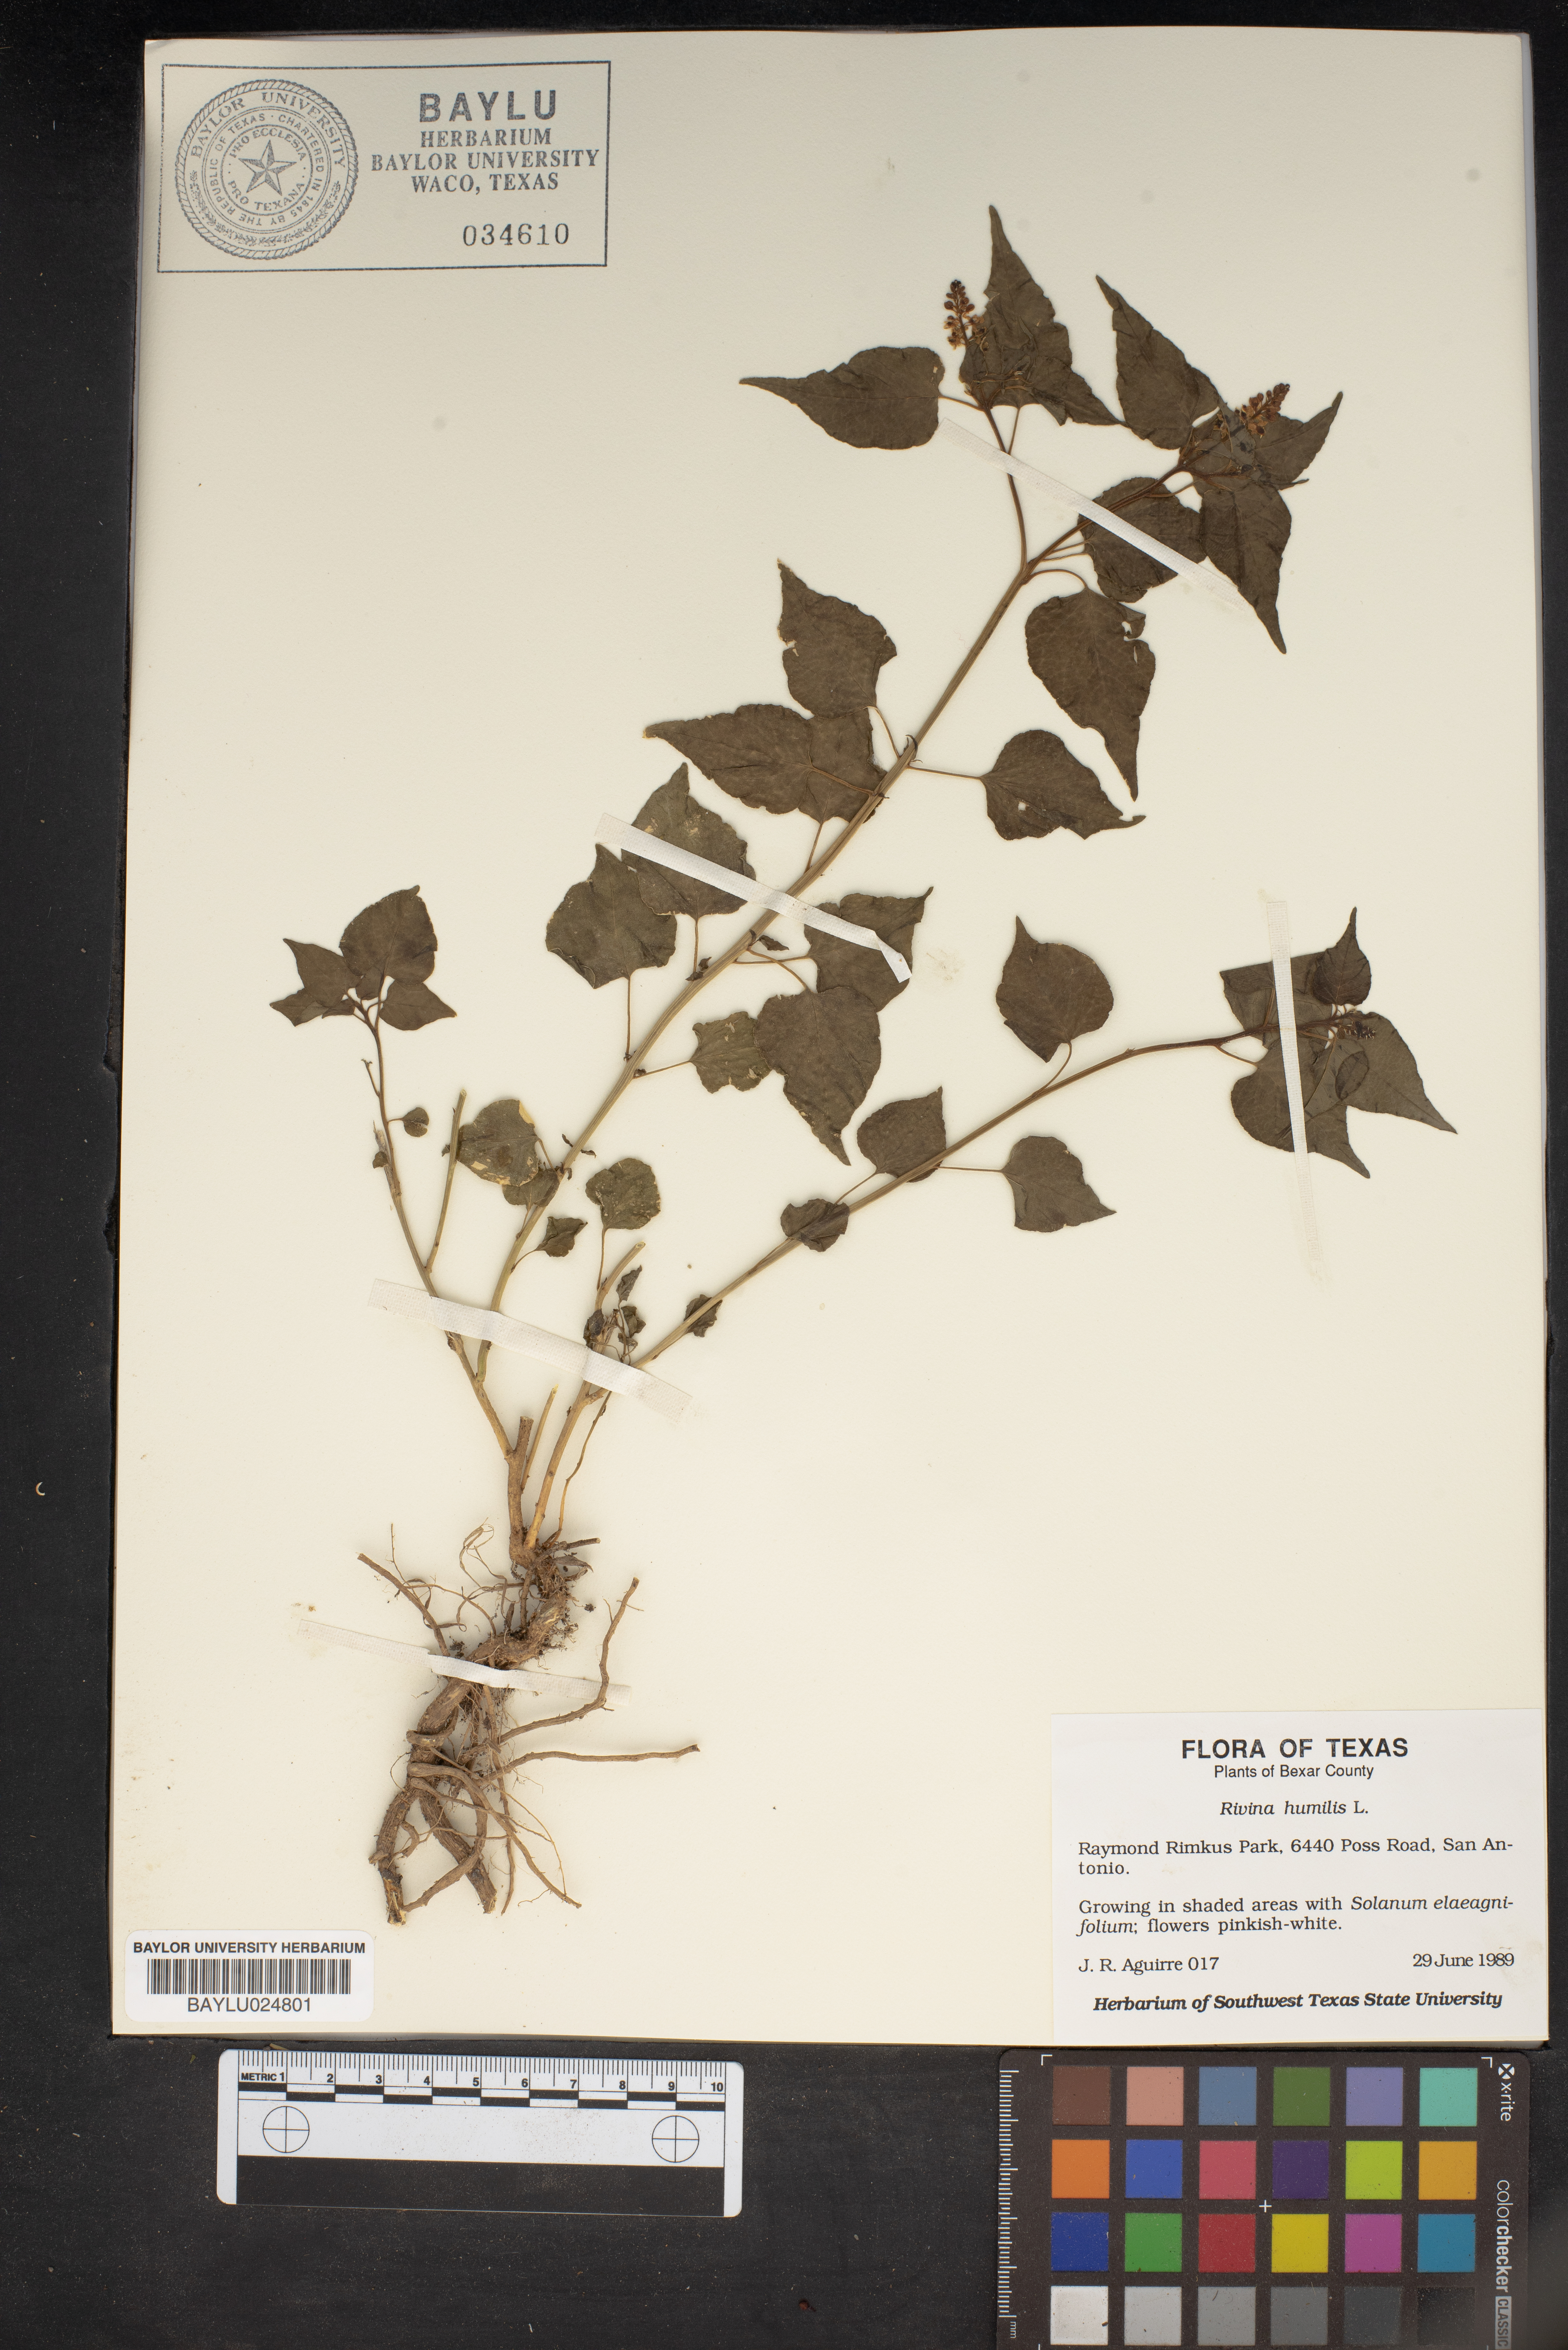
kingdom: Plantae
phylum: Tracheophyta
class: Magnoliopsida
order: Caryophyllales
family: Phytolaccaceae
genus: Rivina
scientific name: Rivina humilis
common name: Rougeplant
